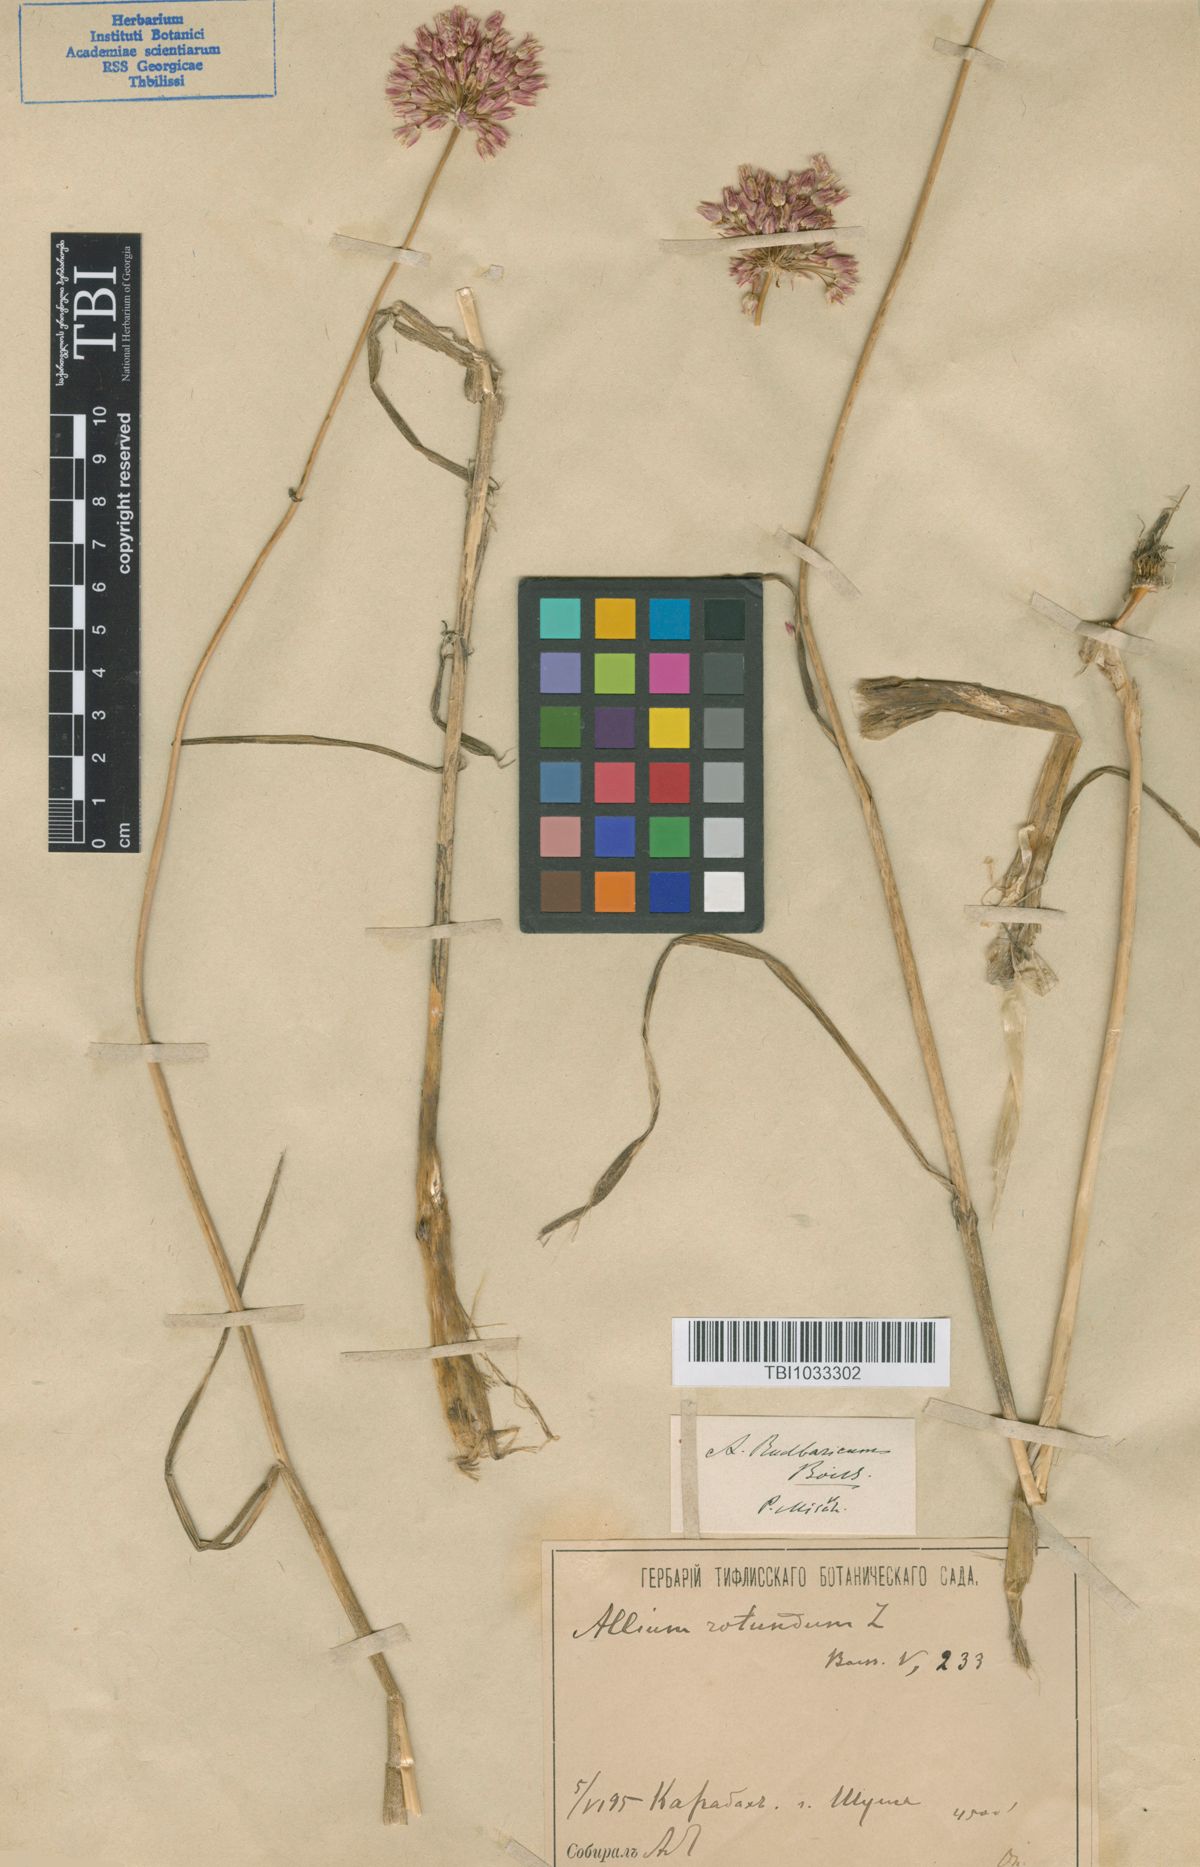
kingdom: Plantae
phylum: Tracheophyta
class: Liliopsida
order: Asparagales
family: Amaryllidaceae
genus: Allium
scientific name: Allium erubescens
